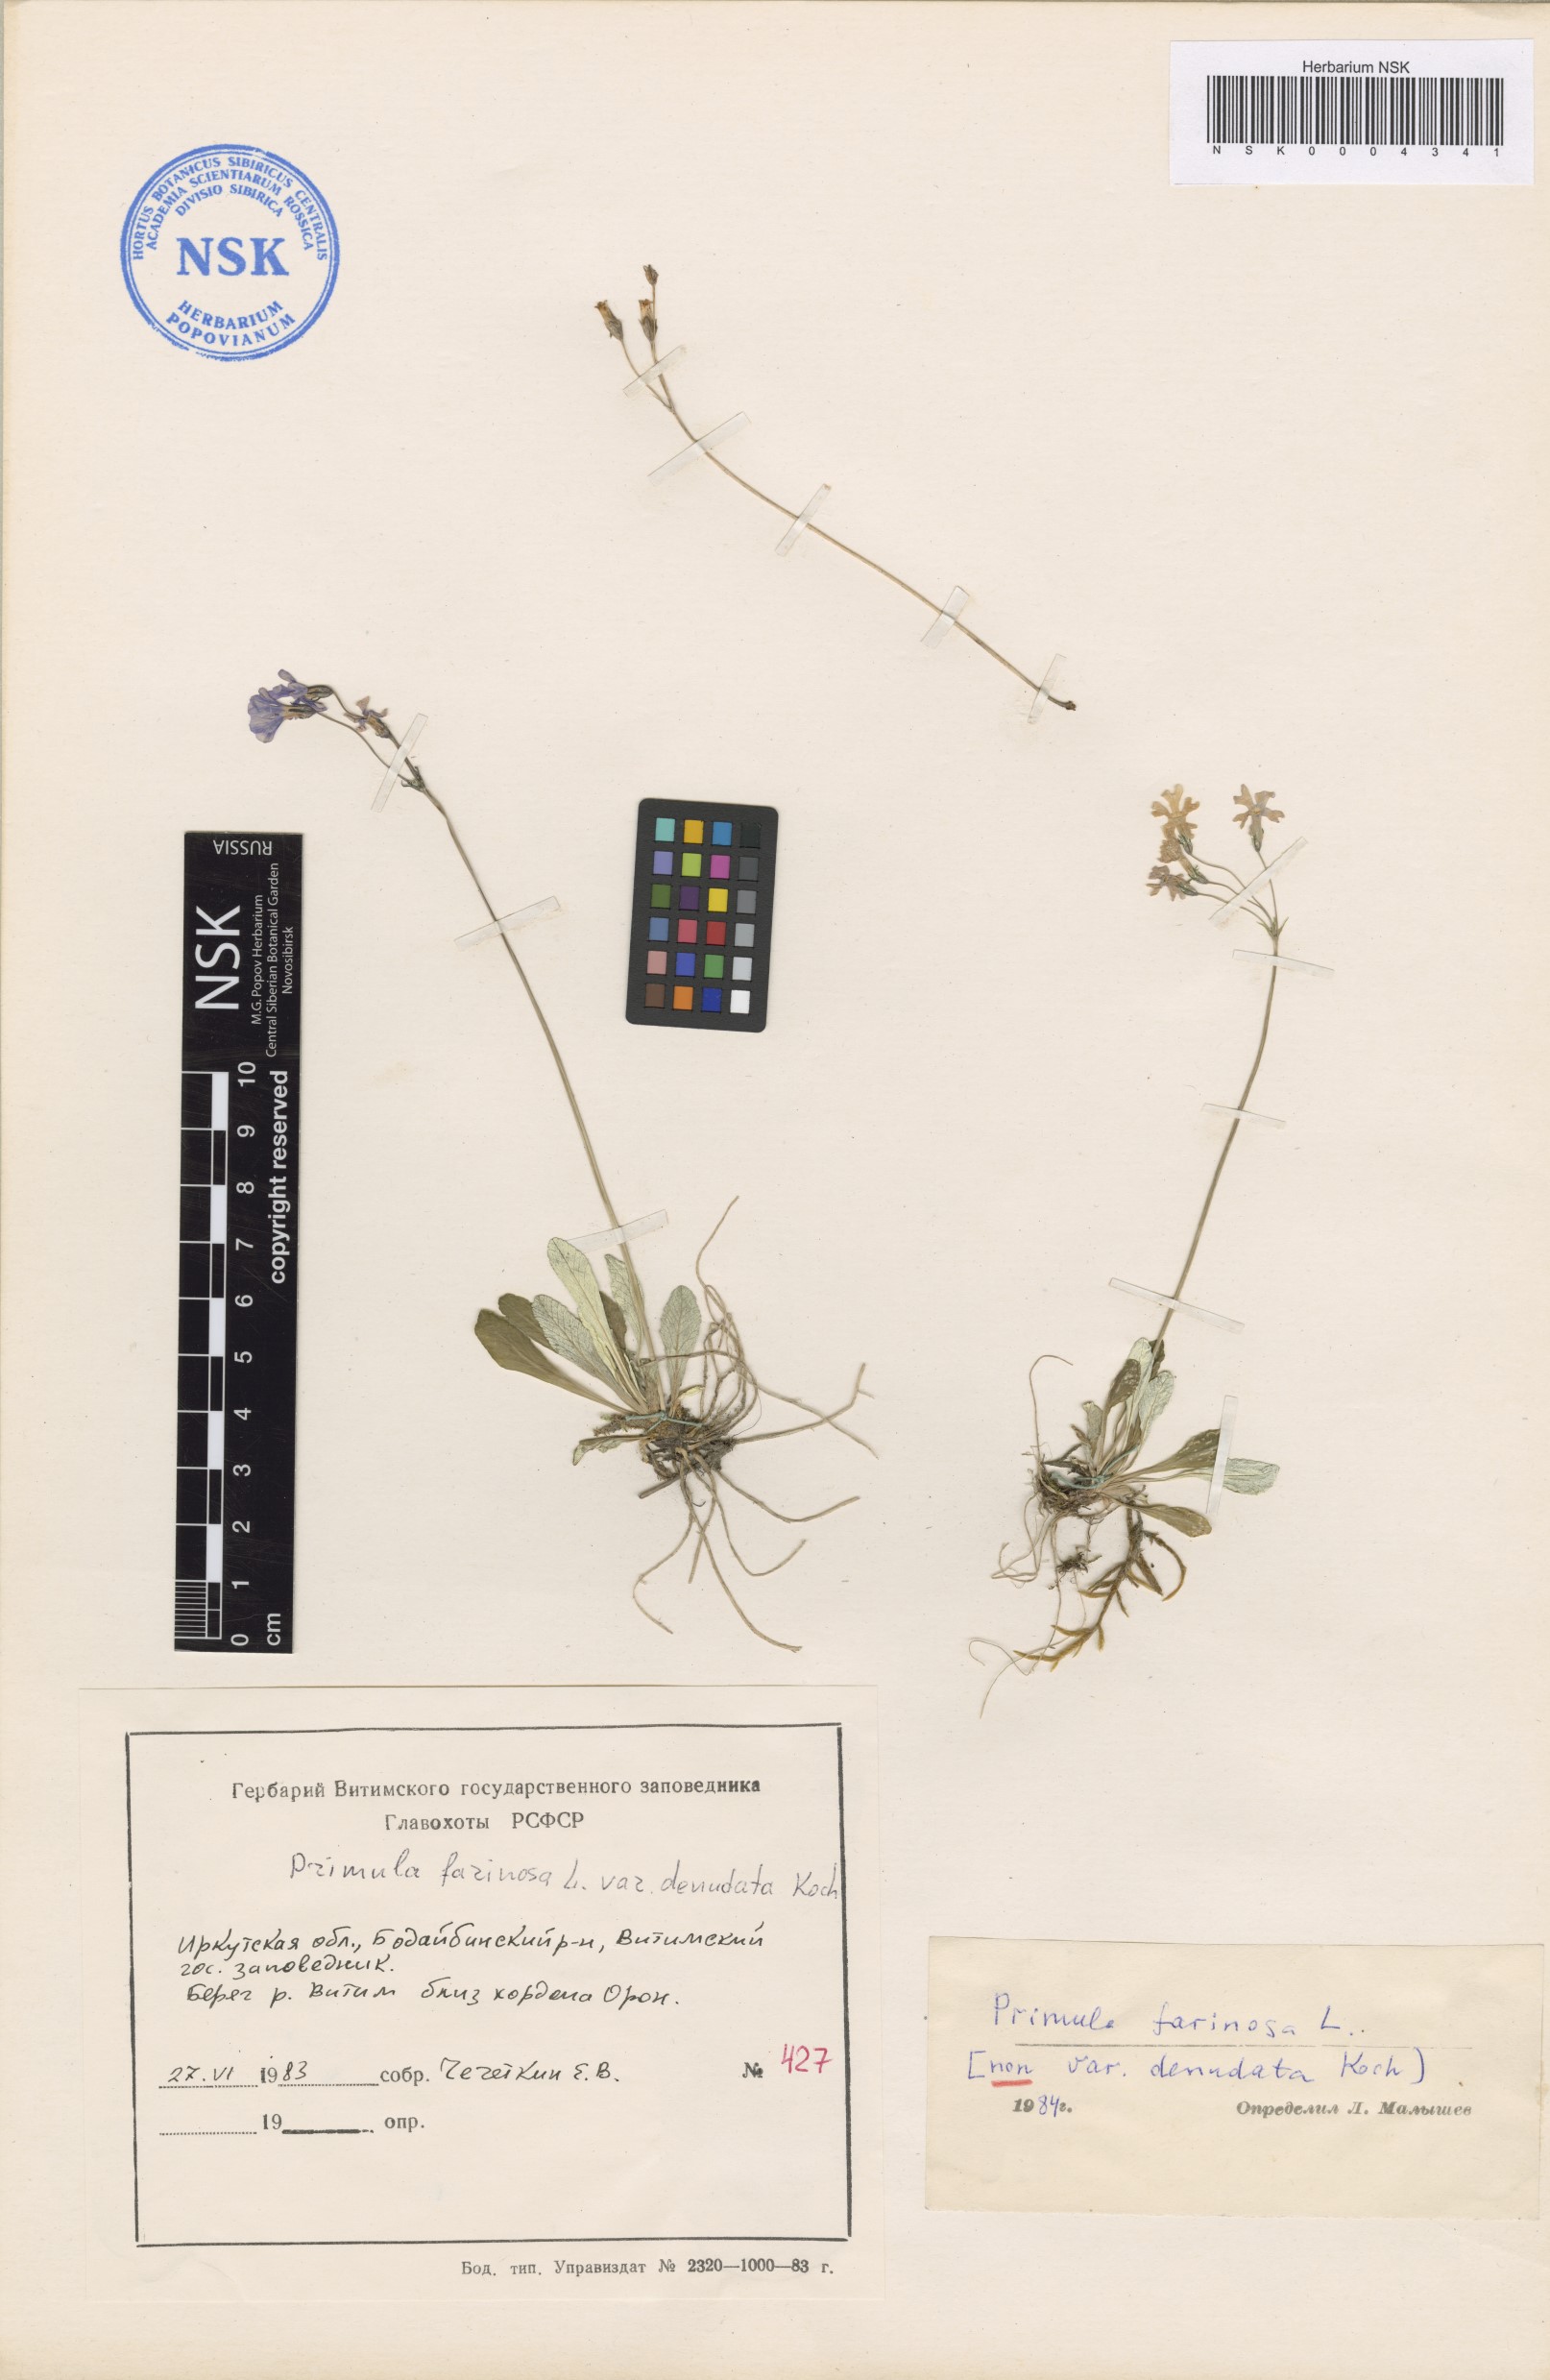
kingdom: Plantae
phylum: Tracheophyta
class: Magnoliopsida
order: Ericales
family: Primulaceae
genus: Primula
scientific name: Primula farinosa
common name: Bird's-eye primrose
